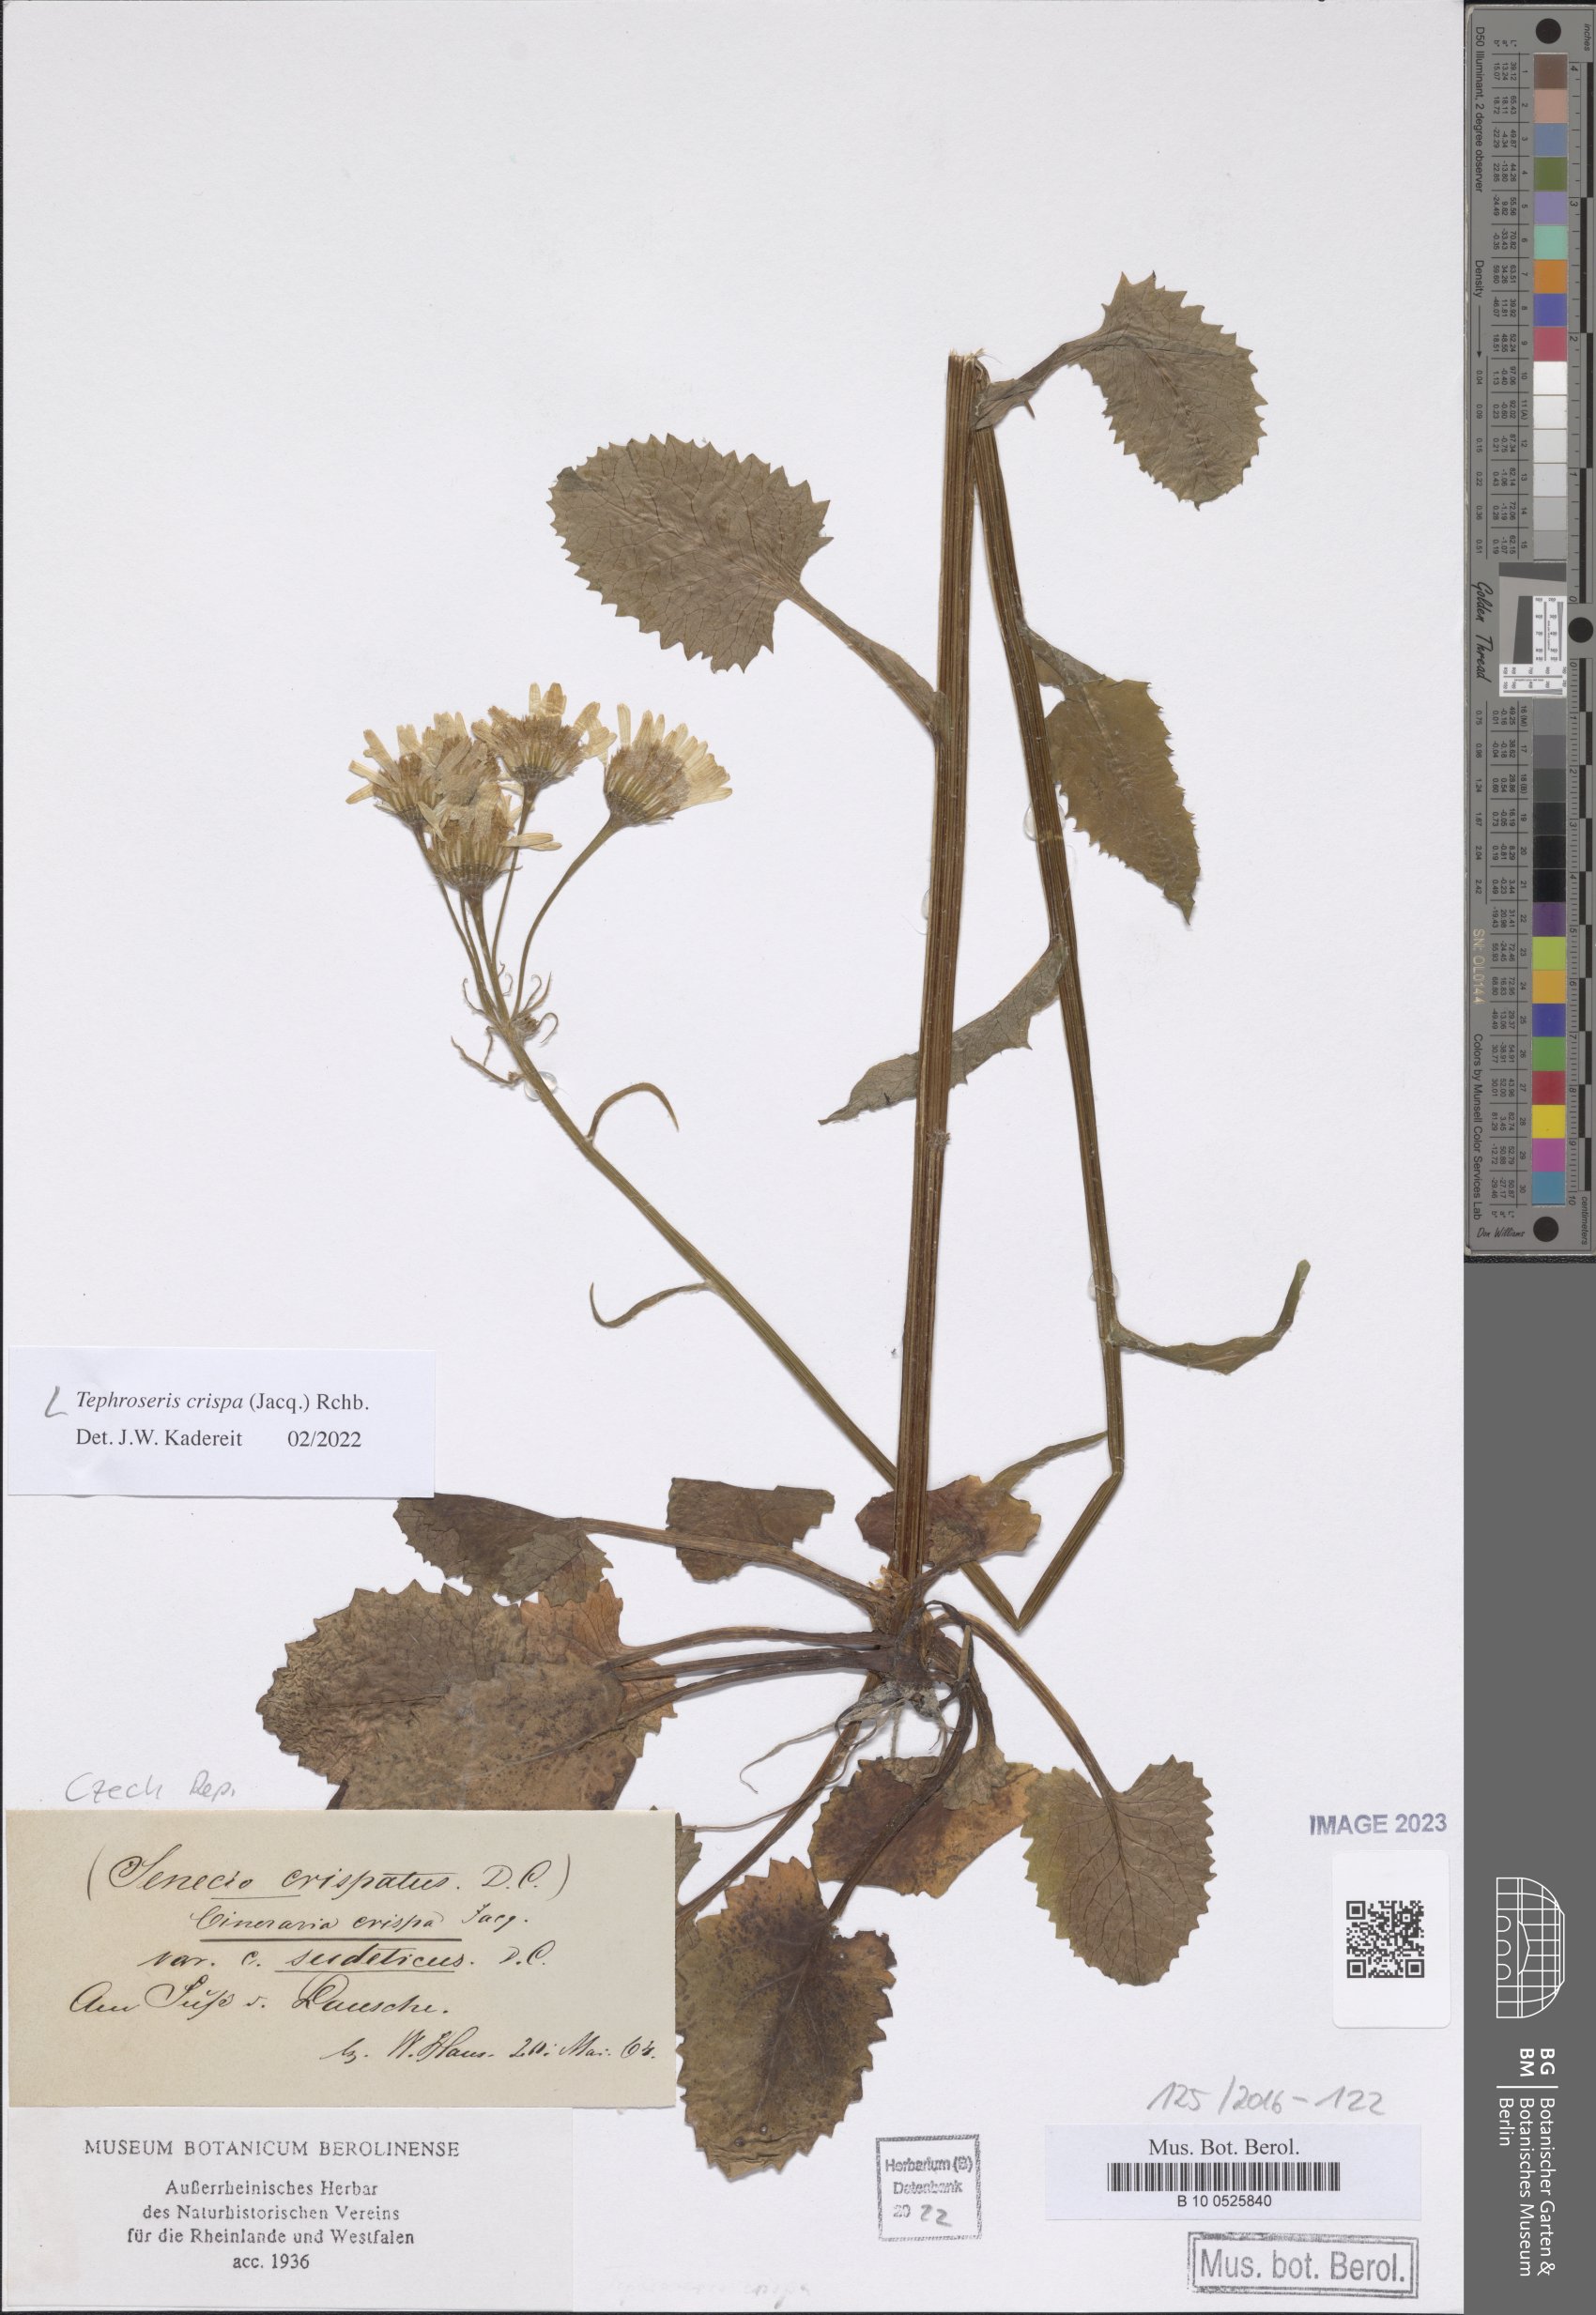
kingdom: Plantae
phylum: Tracheophyta
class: Magnoliopsida
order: Asterales
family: Asteraceae
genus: Tephroseris
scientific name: Tephroseris crispa
